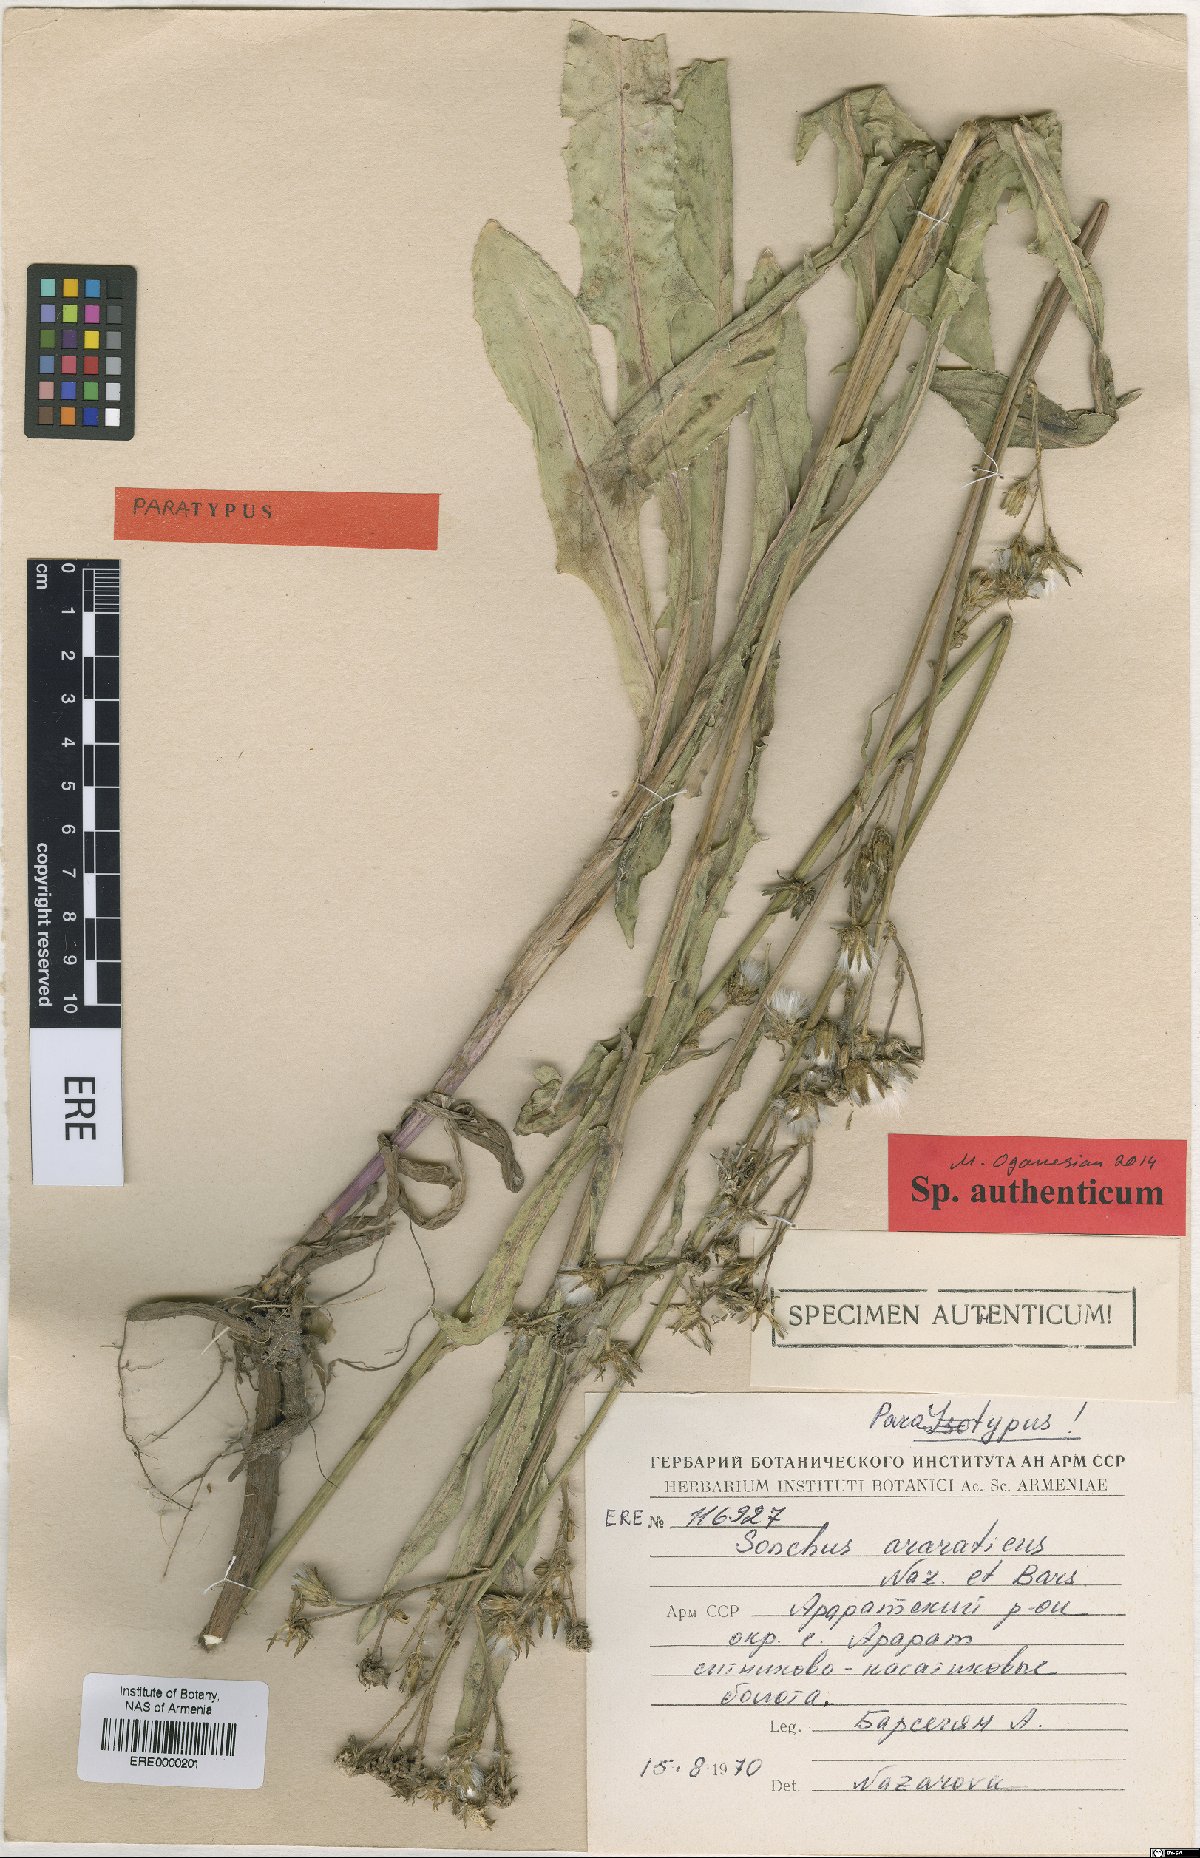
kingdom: Plantae
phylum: Tracheophyta
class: Magnoliopsida
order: Asterales
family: Asteraceae
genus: Sonchus
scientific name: Sonchus araraticus
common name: Araratian sow-thistle
